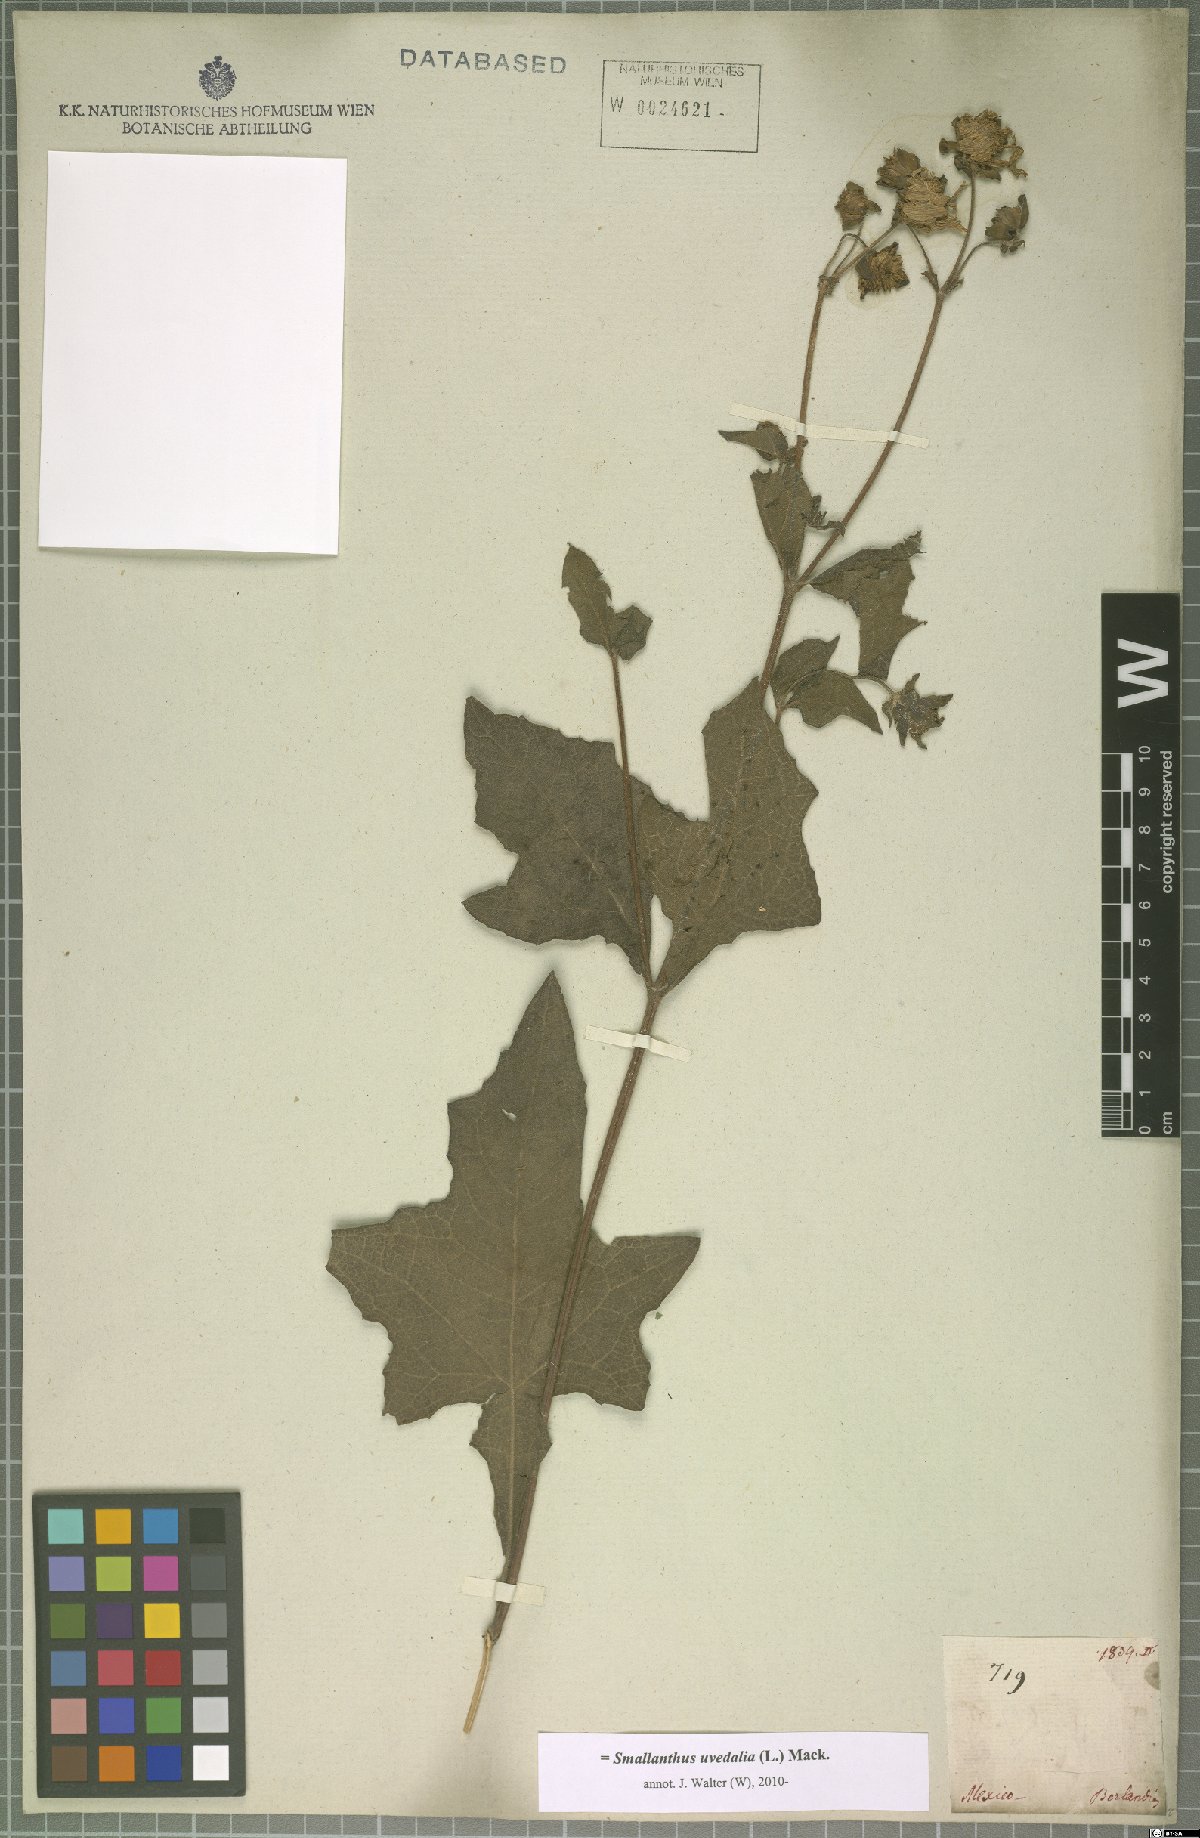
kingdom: Plantae
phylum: Tracheophyta
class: Magnoliopsida
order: Asterales
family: Asteraceae
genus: Smallanthus
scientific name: Smallanthus uvedalia
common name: Bear's-foot
